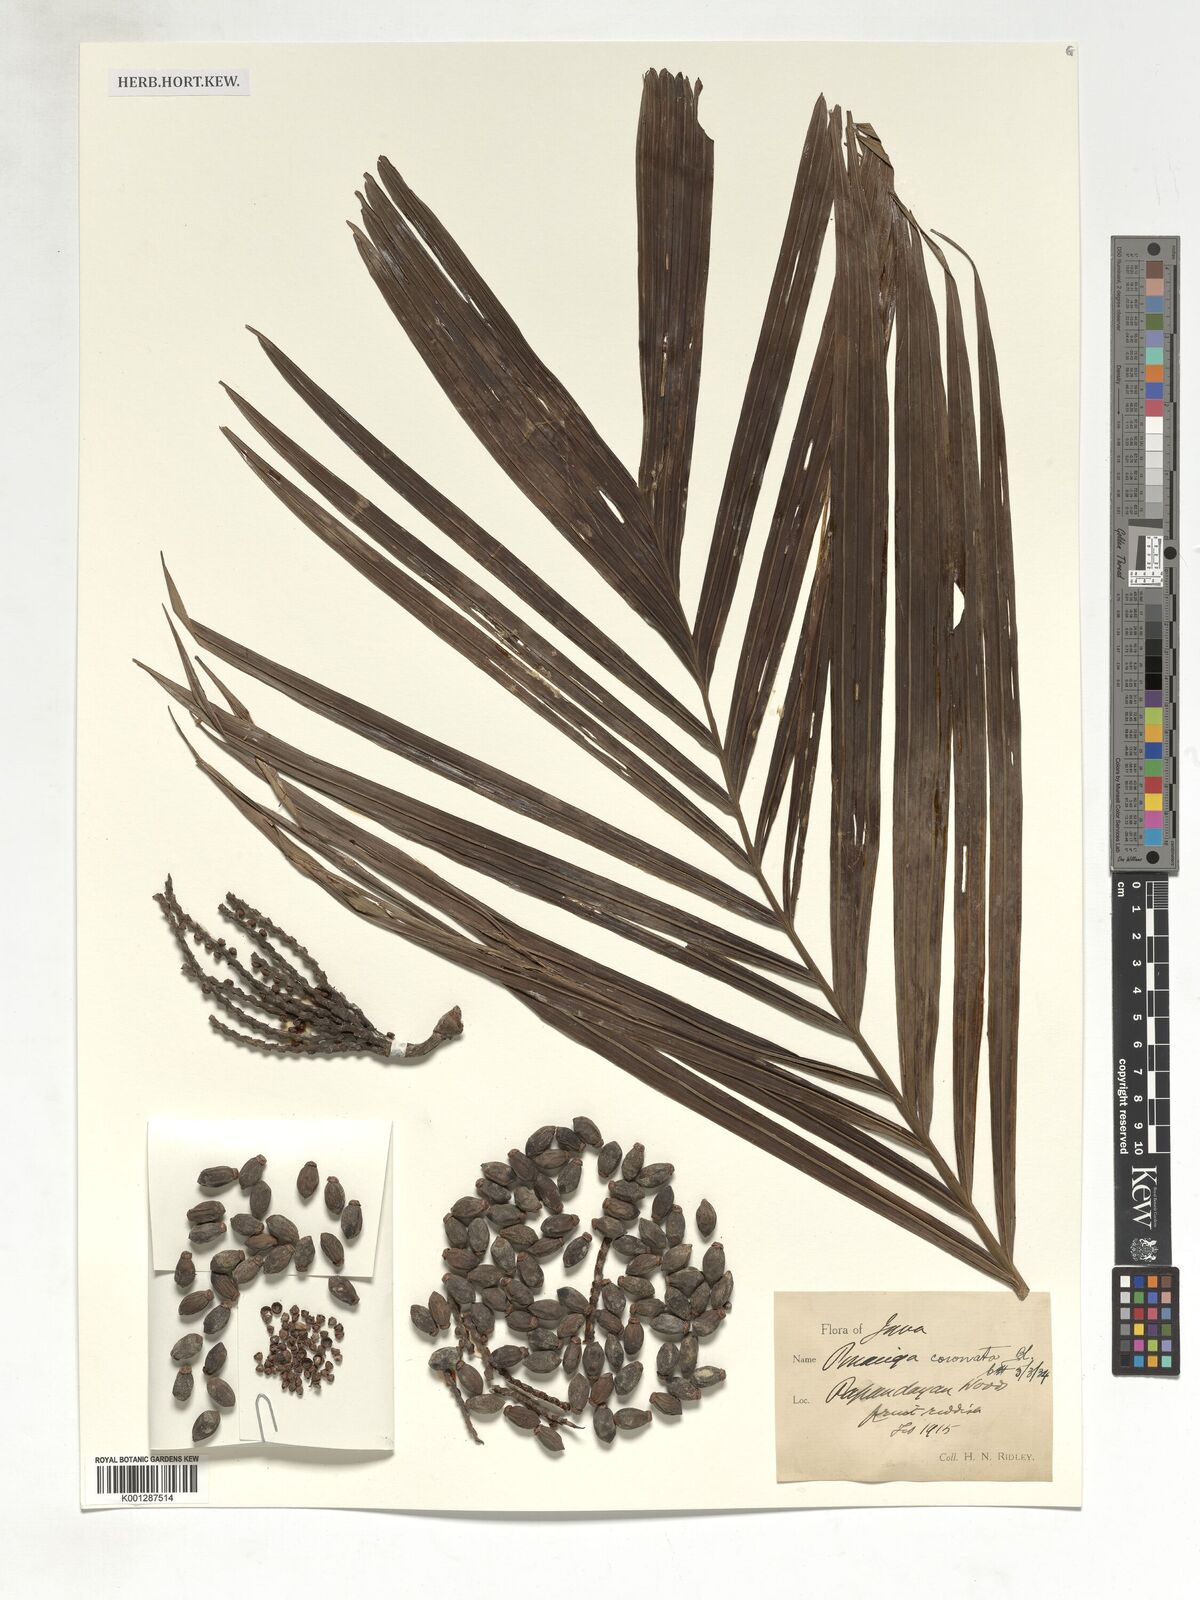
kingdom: Plantae
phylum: Tracheophyta
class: Liliopsida
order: Arecales
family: Arecaceae
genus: Pinanga
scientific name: Pinanga coronata
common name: Ivory cane palm
